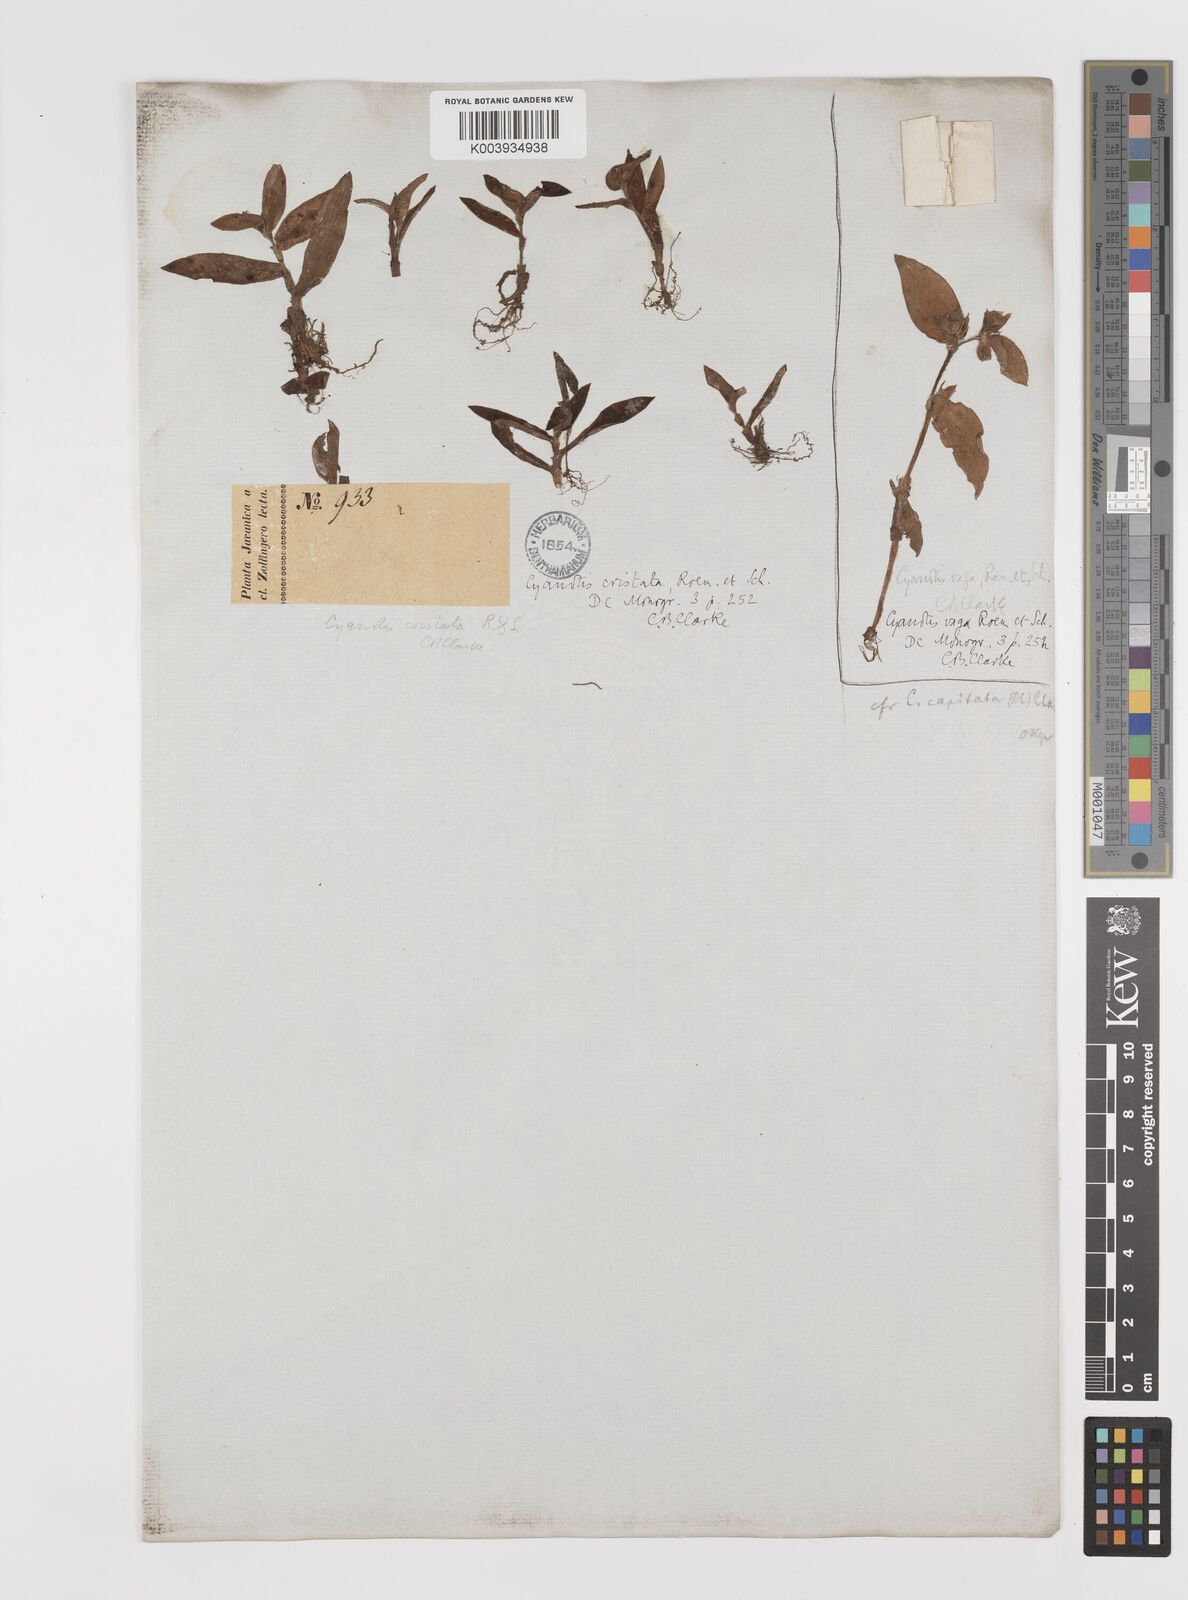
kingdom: Plantae
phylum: Tracheophyta
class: Liliopsida
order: Commelinales
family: Commelinaceae
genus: Cyanotis
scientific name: Cyanotis cristata
